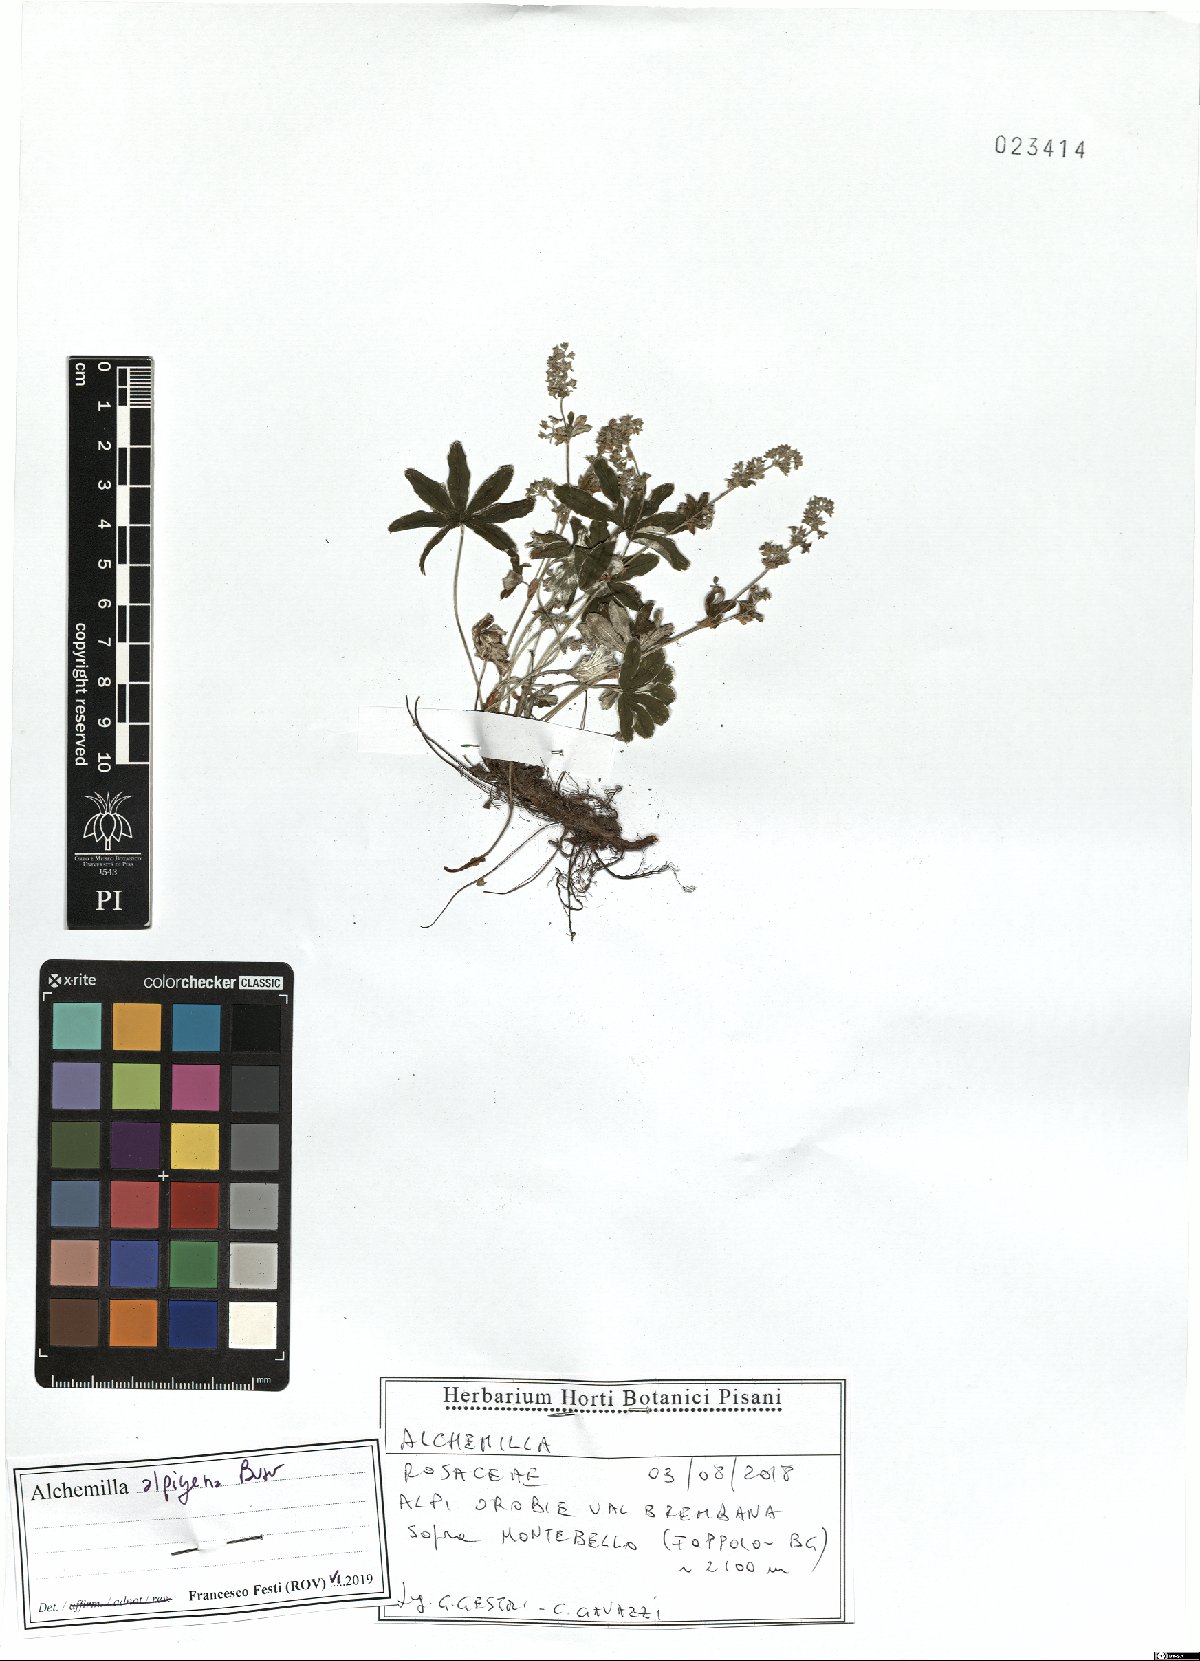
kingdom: Plantae
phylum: Tracheophyta
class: Magnoliopsida
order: Rosales
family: Rosaceae
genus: Alchemilla
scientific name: Alchemilla alpigena
